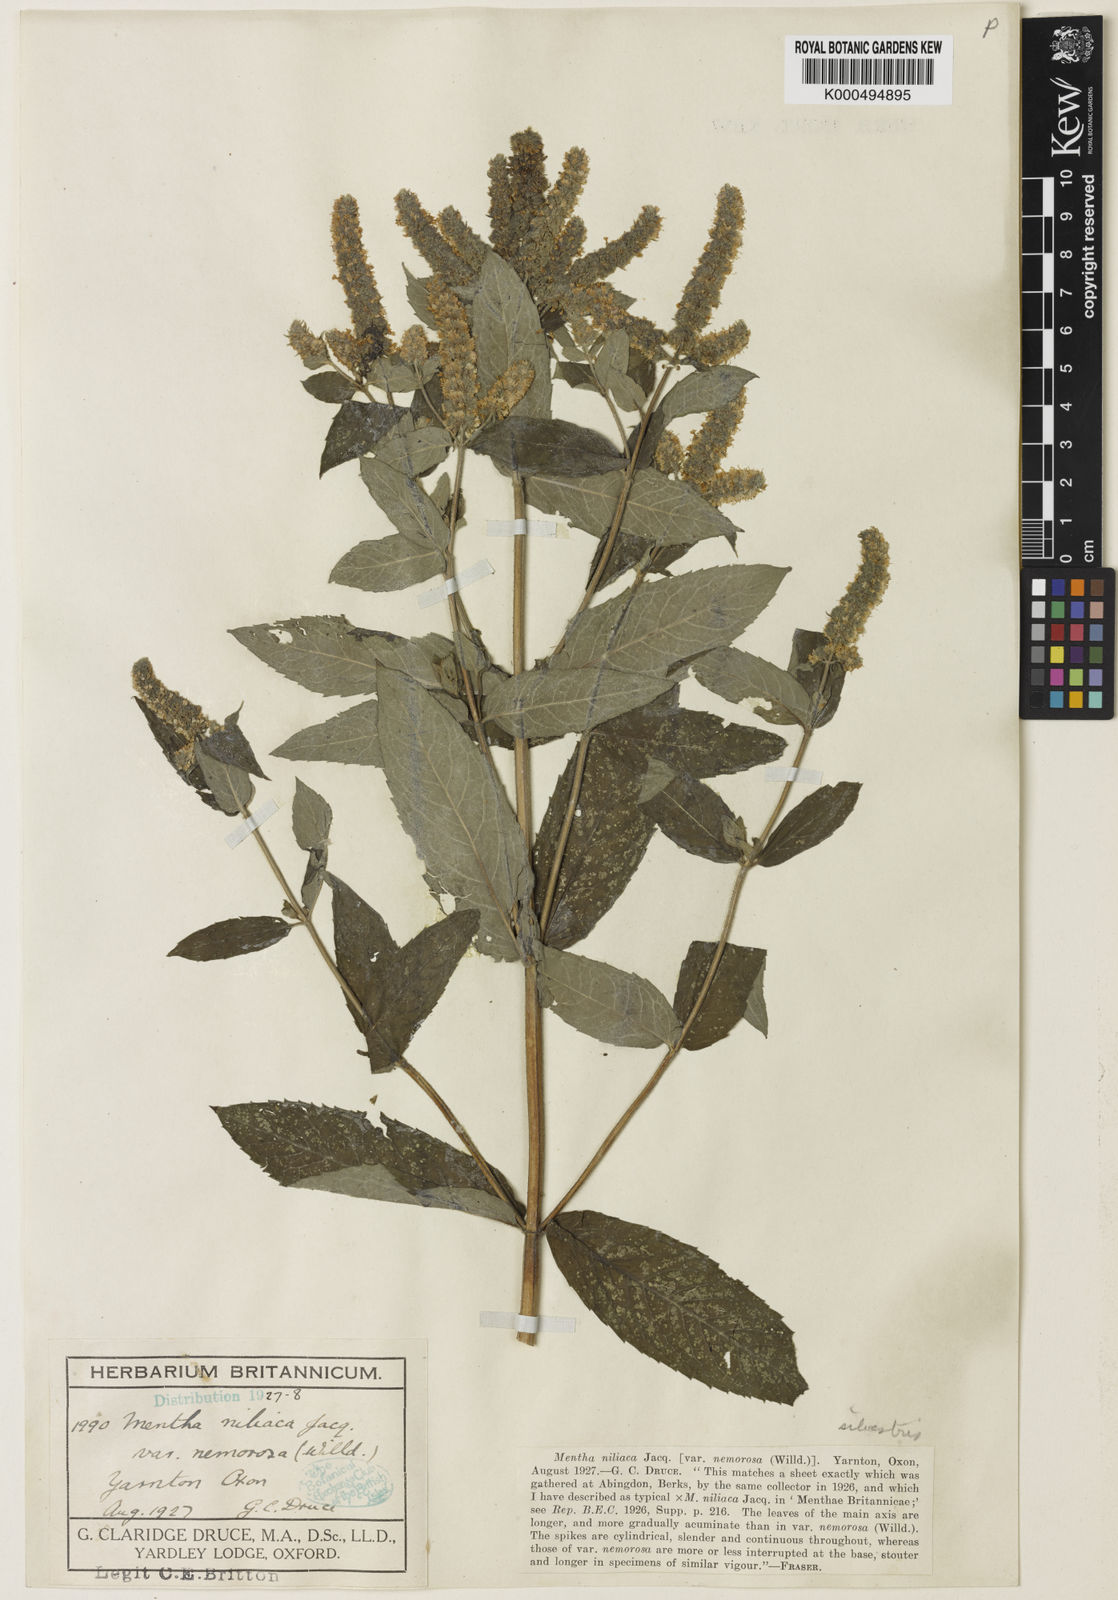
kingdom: Plantae
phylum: Tracheophyta
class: Magnoliopsida
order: Lamiales
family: Lamiaceae
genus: Mentha
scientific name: Mentha villosa
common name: Apple mint
